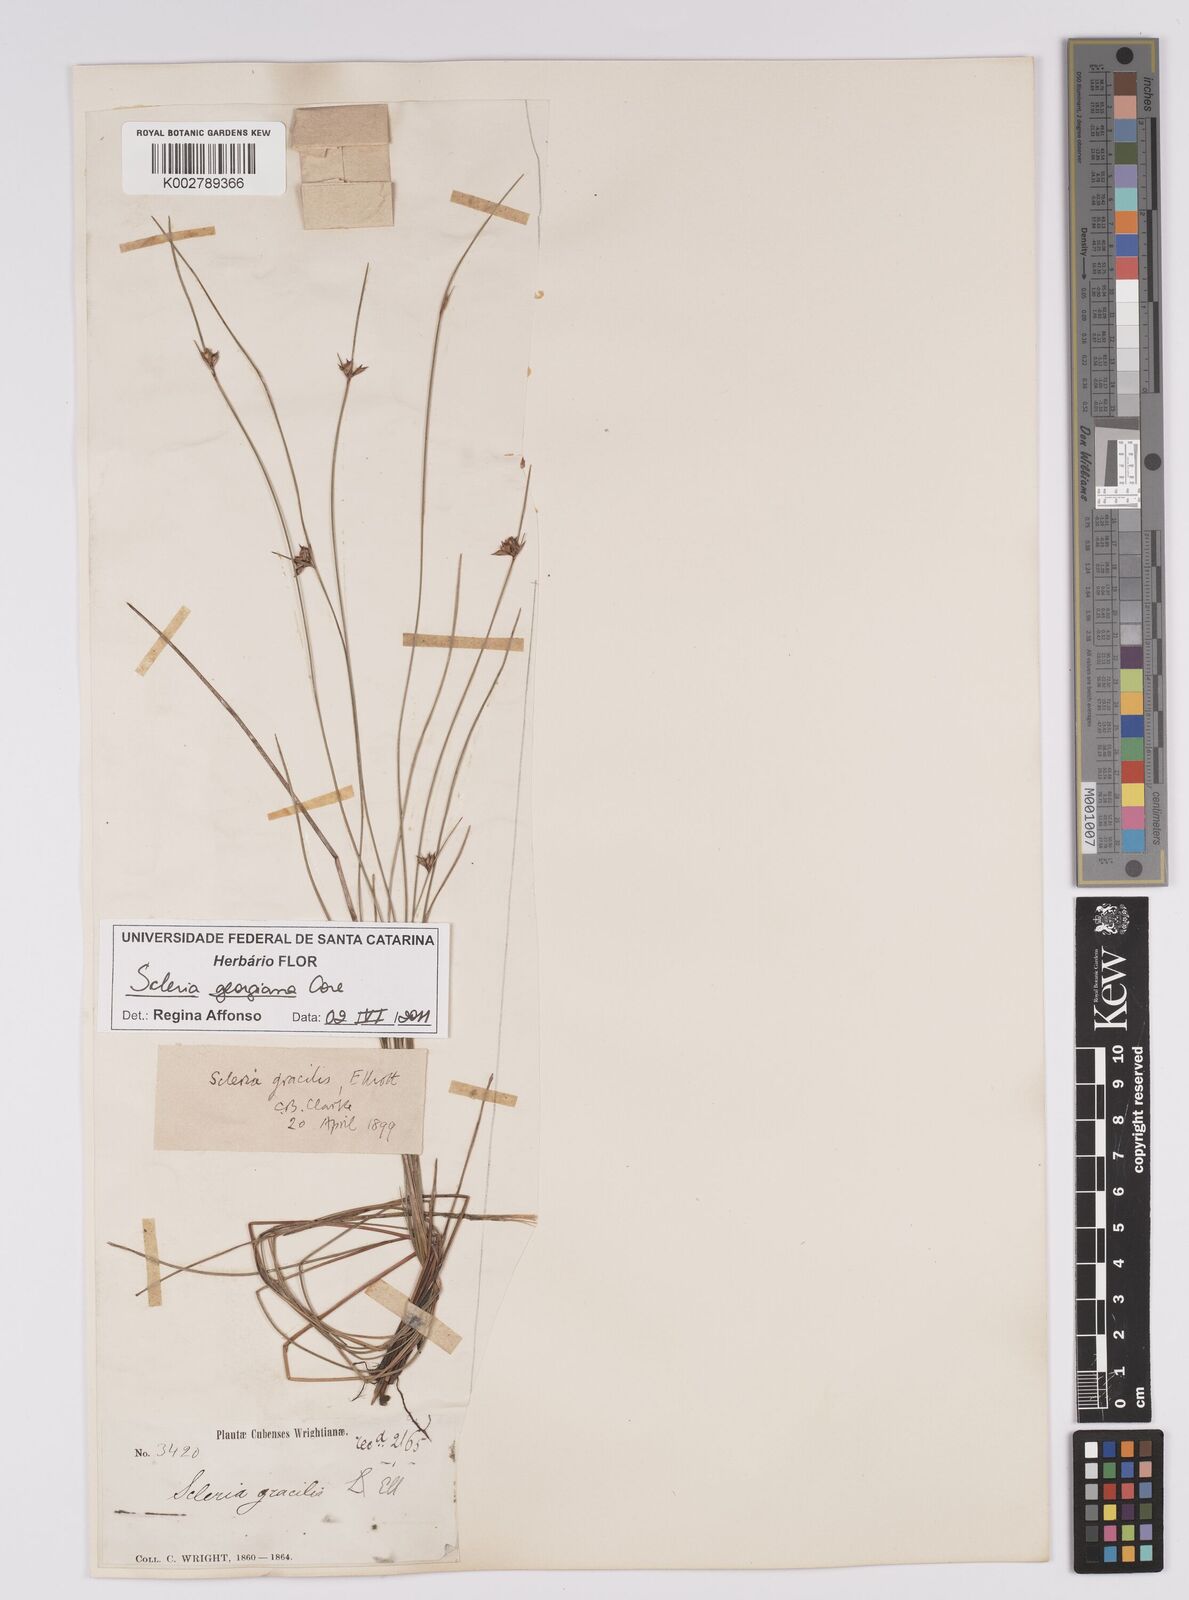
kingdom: Plantae
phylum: Tracheophyta
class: Liliopsida
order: Poales
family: Cyperaceae
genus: Scleria
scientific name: Scleria georgiana
